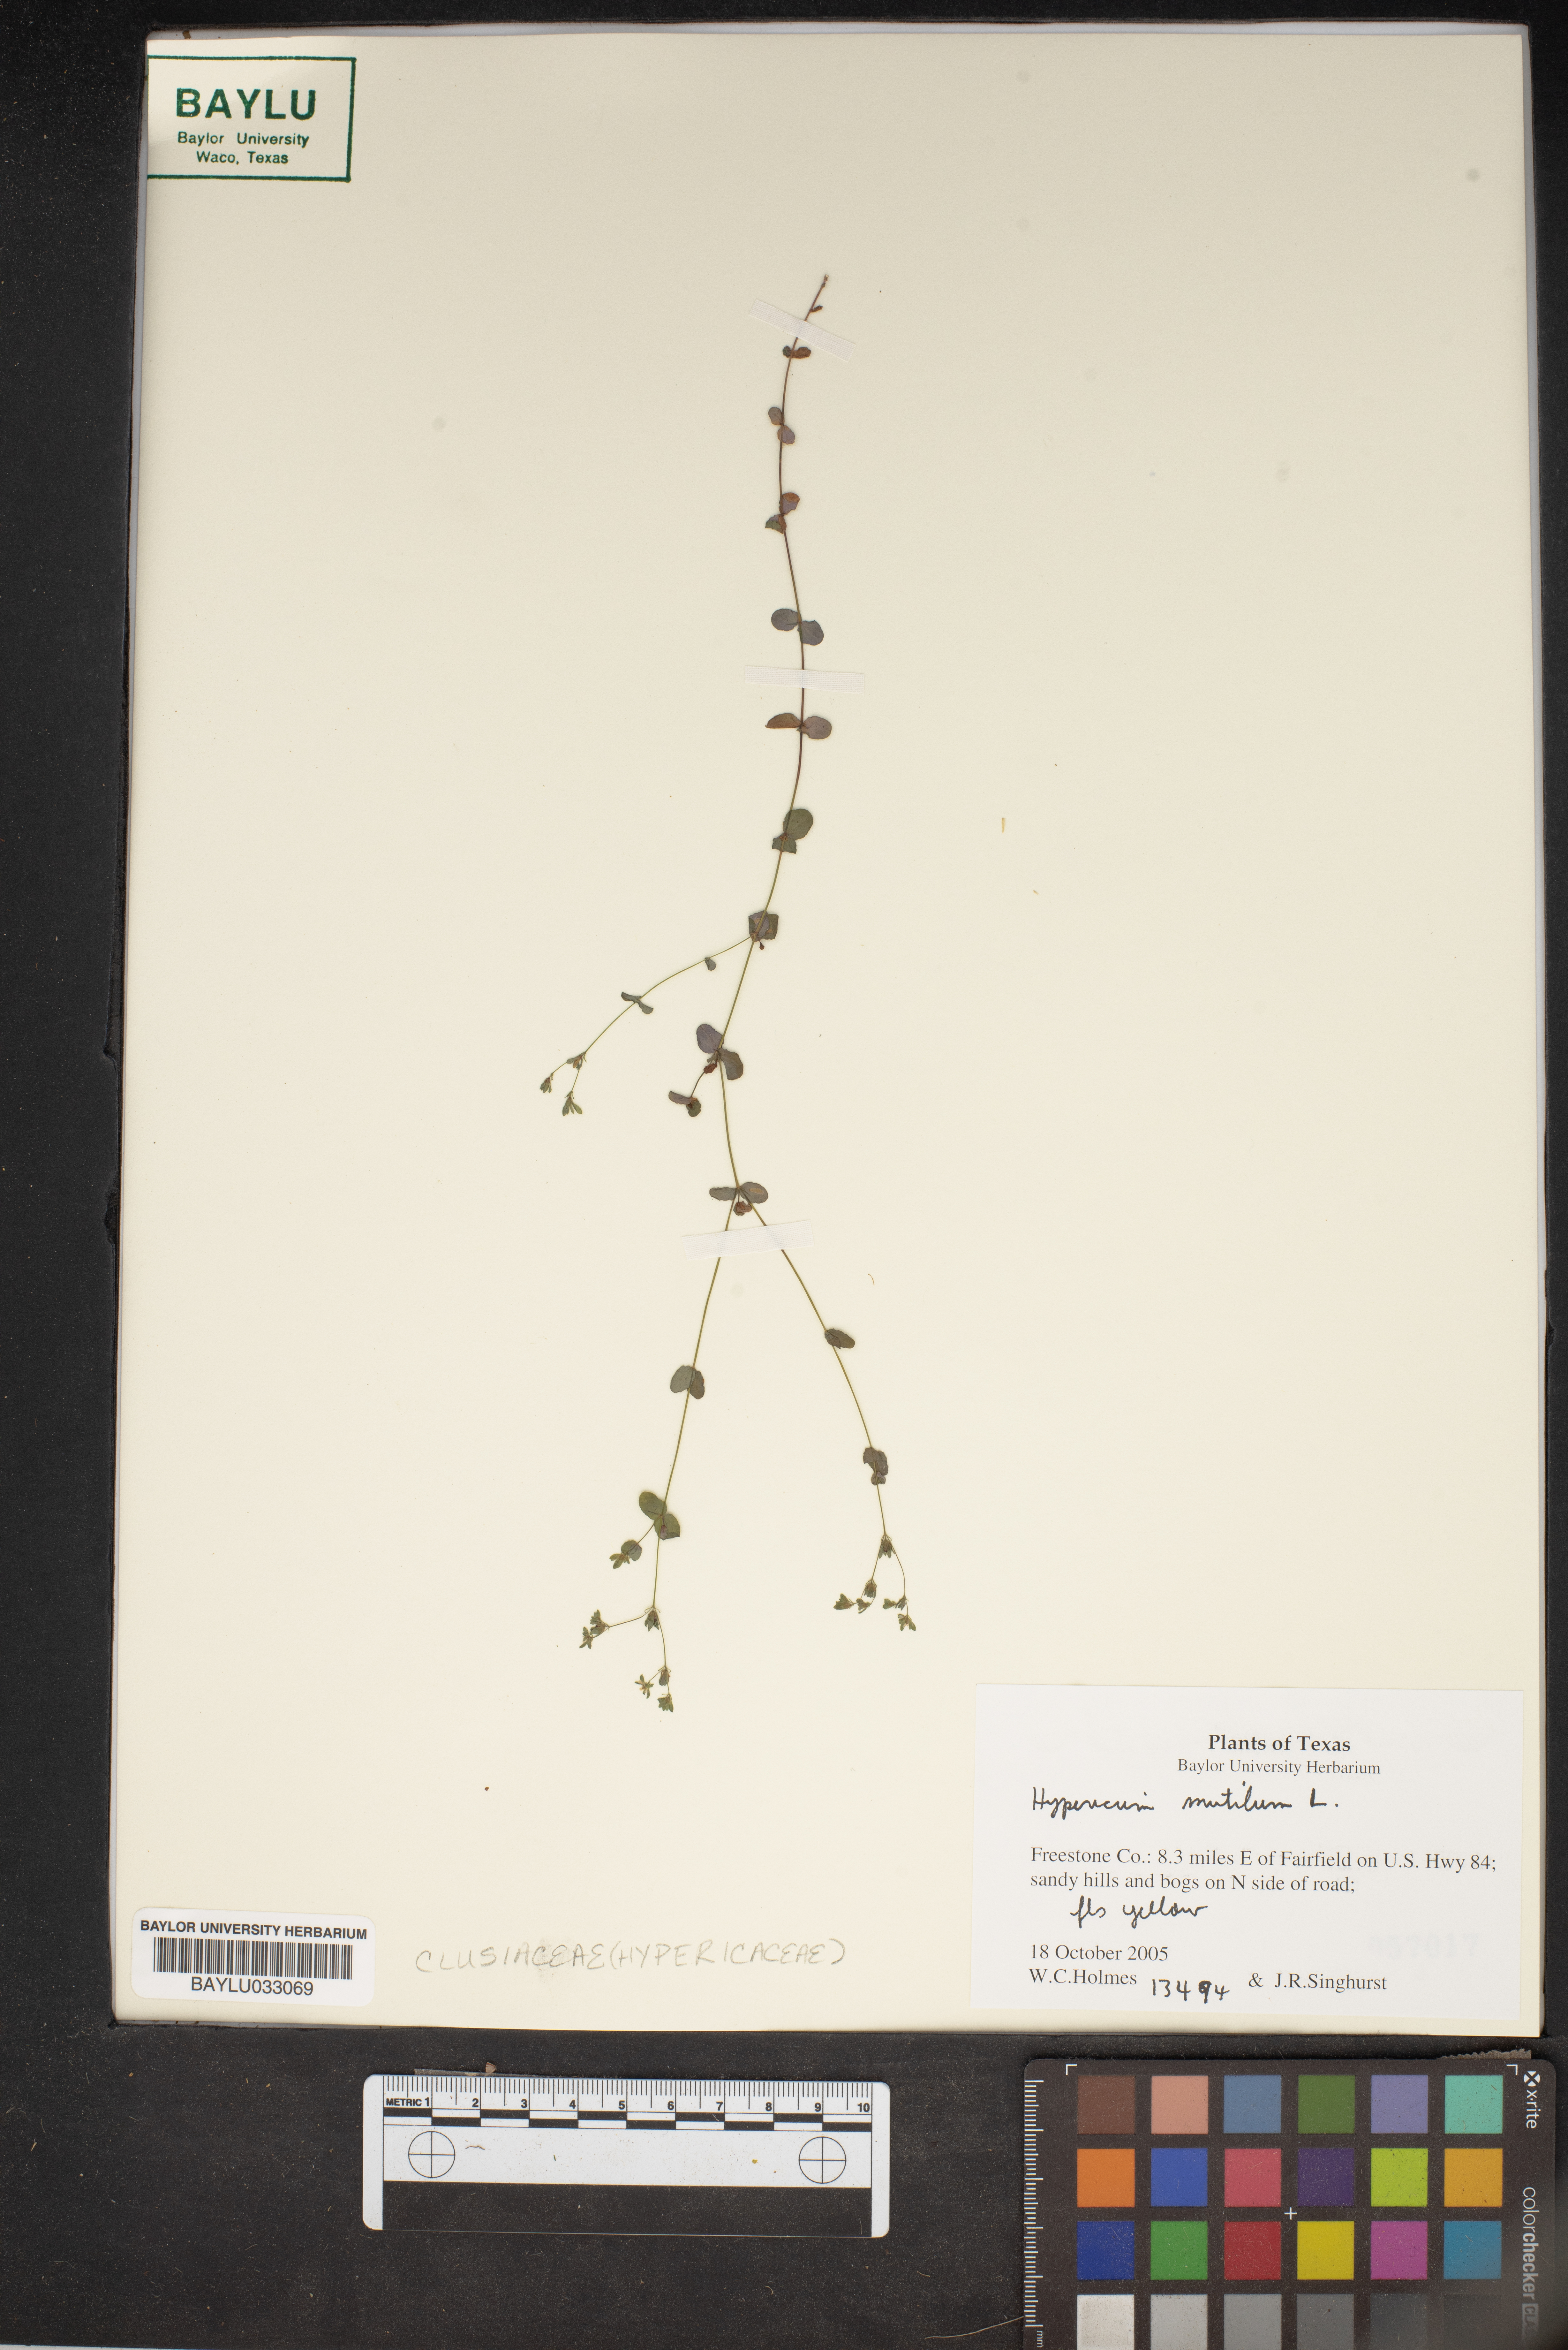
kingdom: Plantae
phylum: Tracheophyta
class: Magnoliopsida
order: Malpighiales
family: Hypericaceae
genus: Hypericum
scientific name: Hypericum mutilum
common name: Dwarf st. john's-wort
